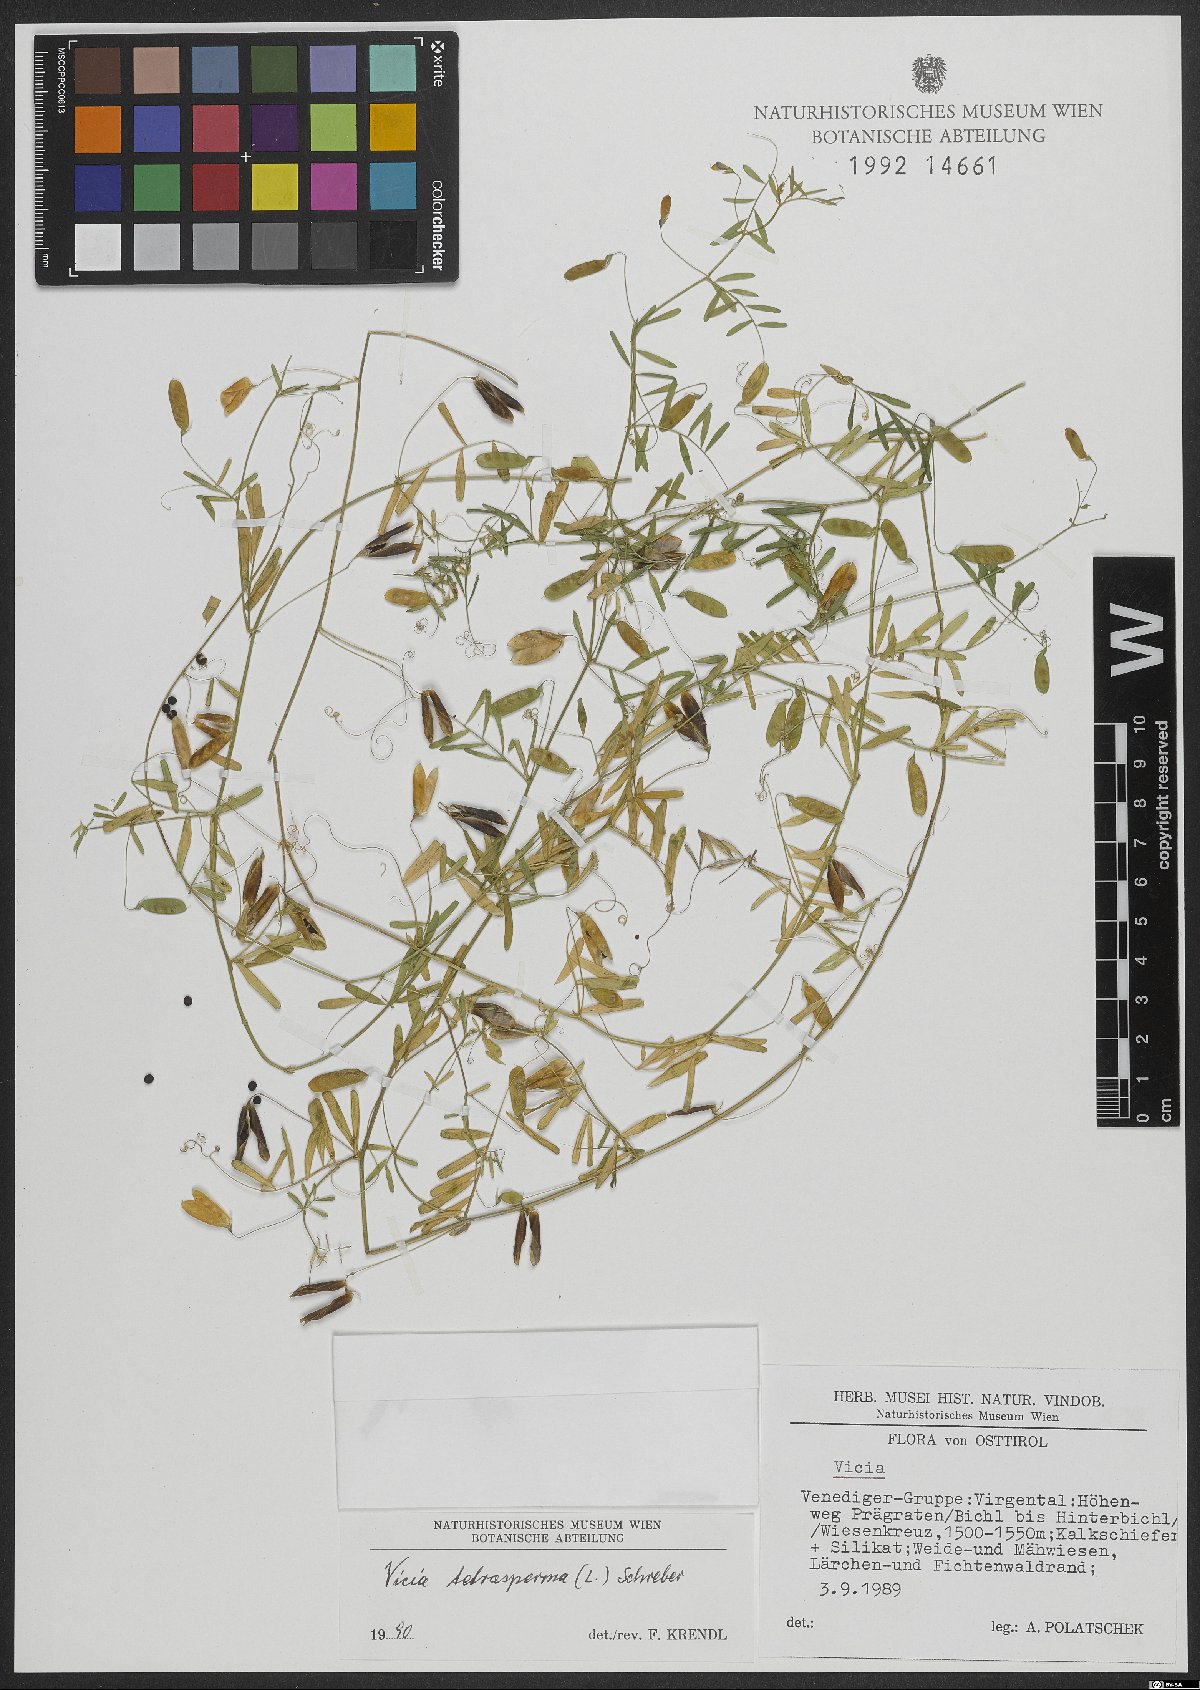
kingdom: Plantae
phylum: Tracheophyta
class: Magnoliopsida
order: Fabales
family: Fabaceae
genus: Vicia
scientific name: Vicia tetrasperma
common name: Smooth tare
